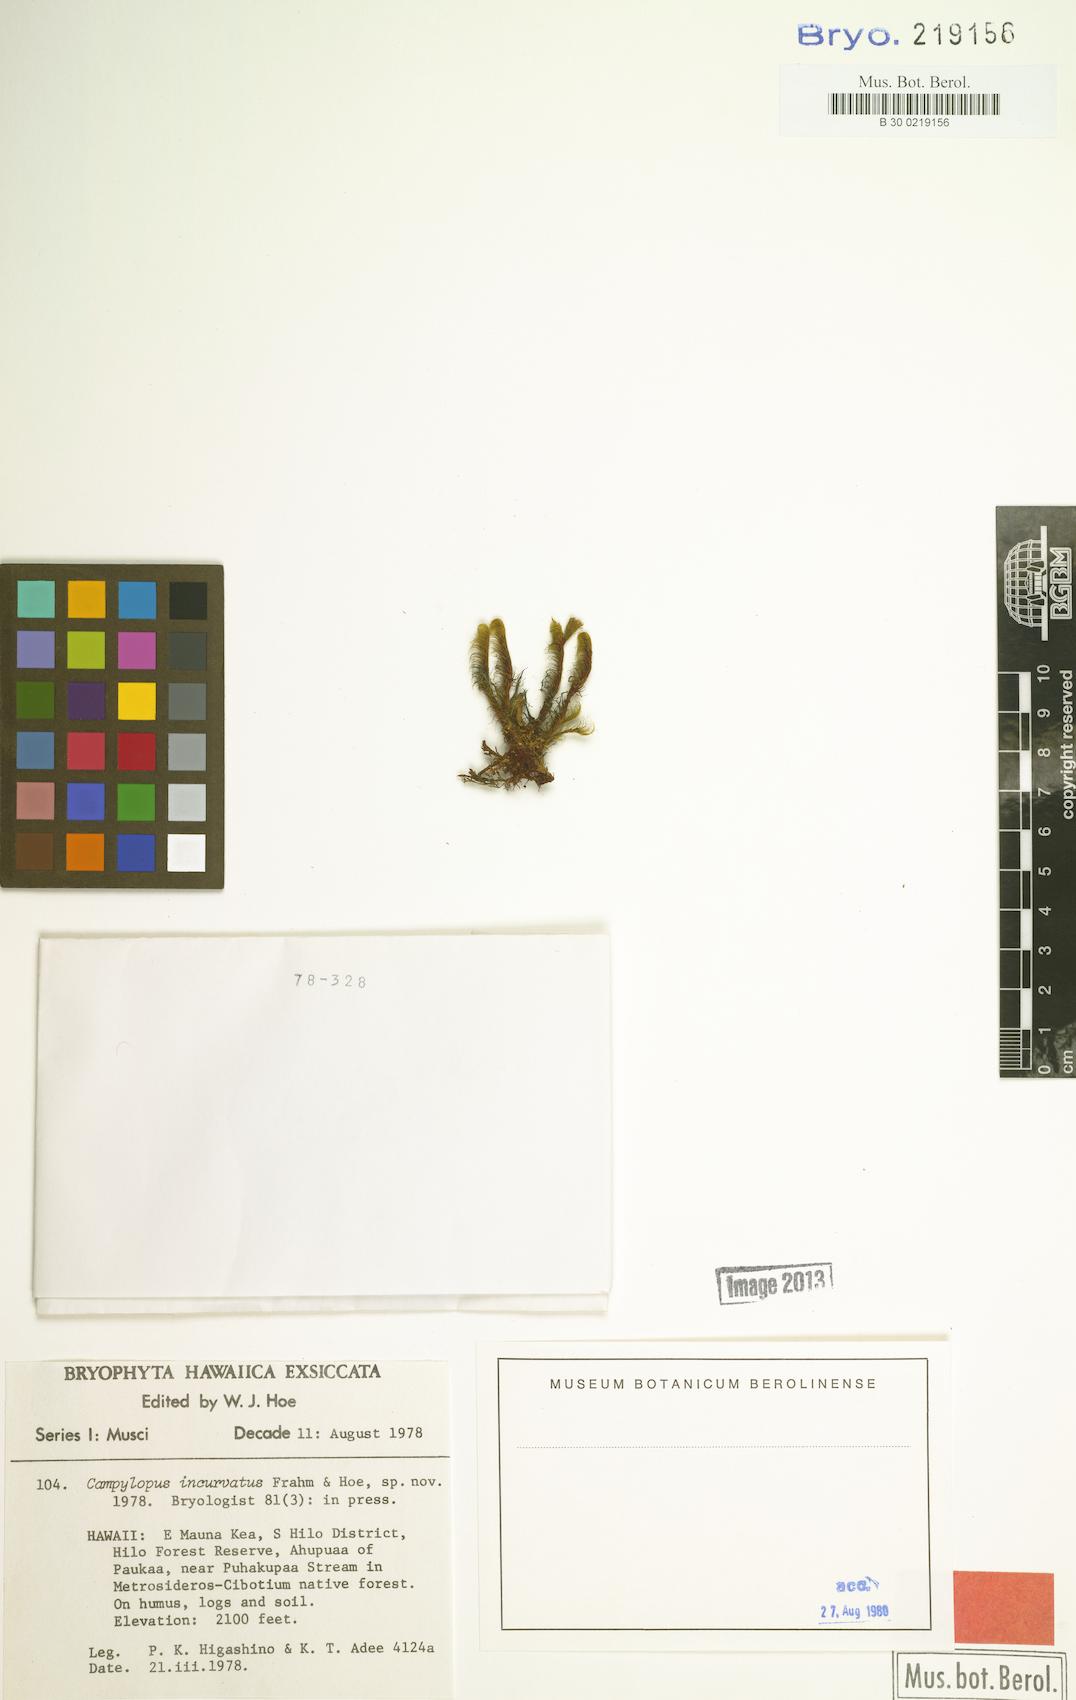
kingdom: Plantae
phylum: Bryophyta
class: Bryopsida
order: Dicranales
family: Leucobryaceae
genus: Campylopus
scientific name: Campylopus incurvatus
